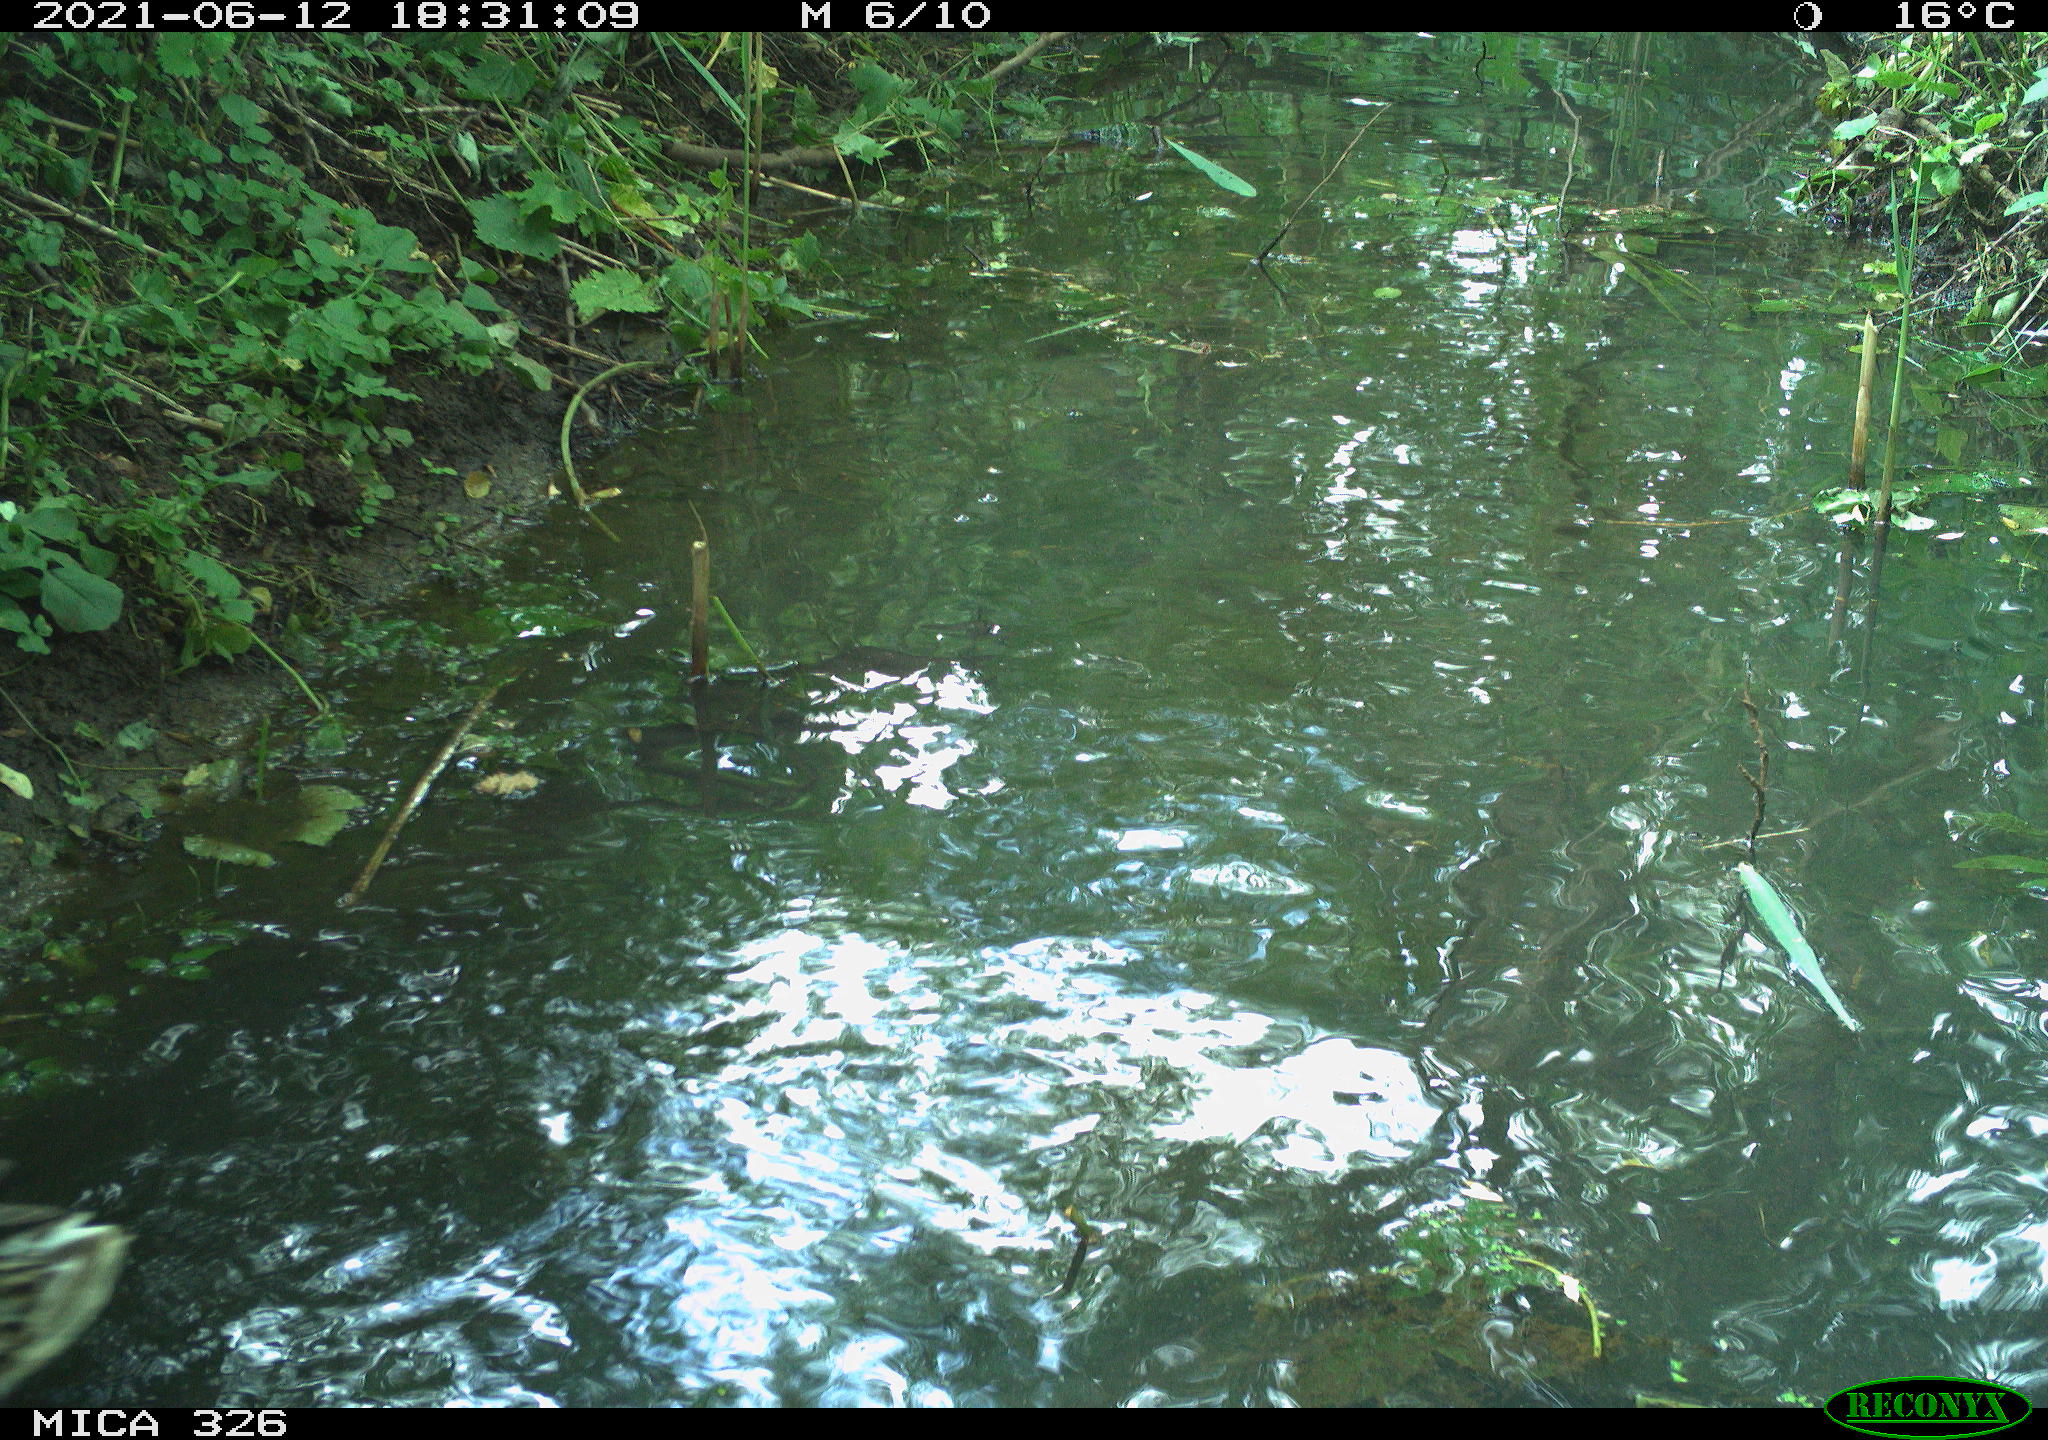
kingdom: Animalia
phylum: Chordata
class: Aves
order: Anseriformes
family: Anatidae
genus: Anas
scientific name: Anas platyrhynchos
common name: Mallard
